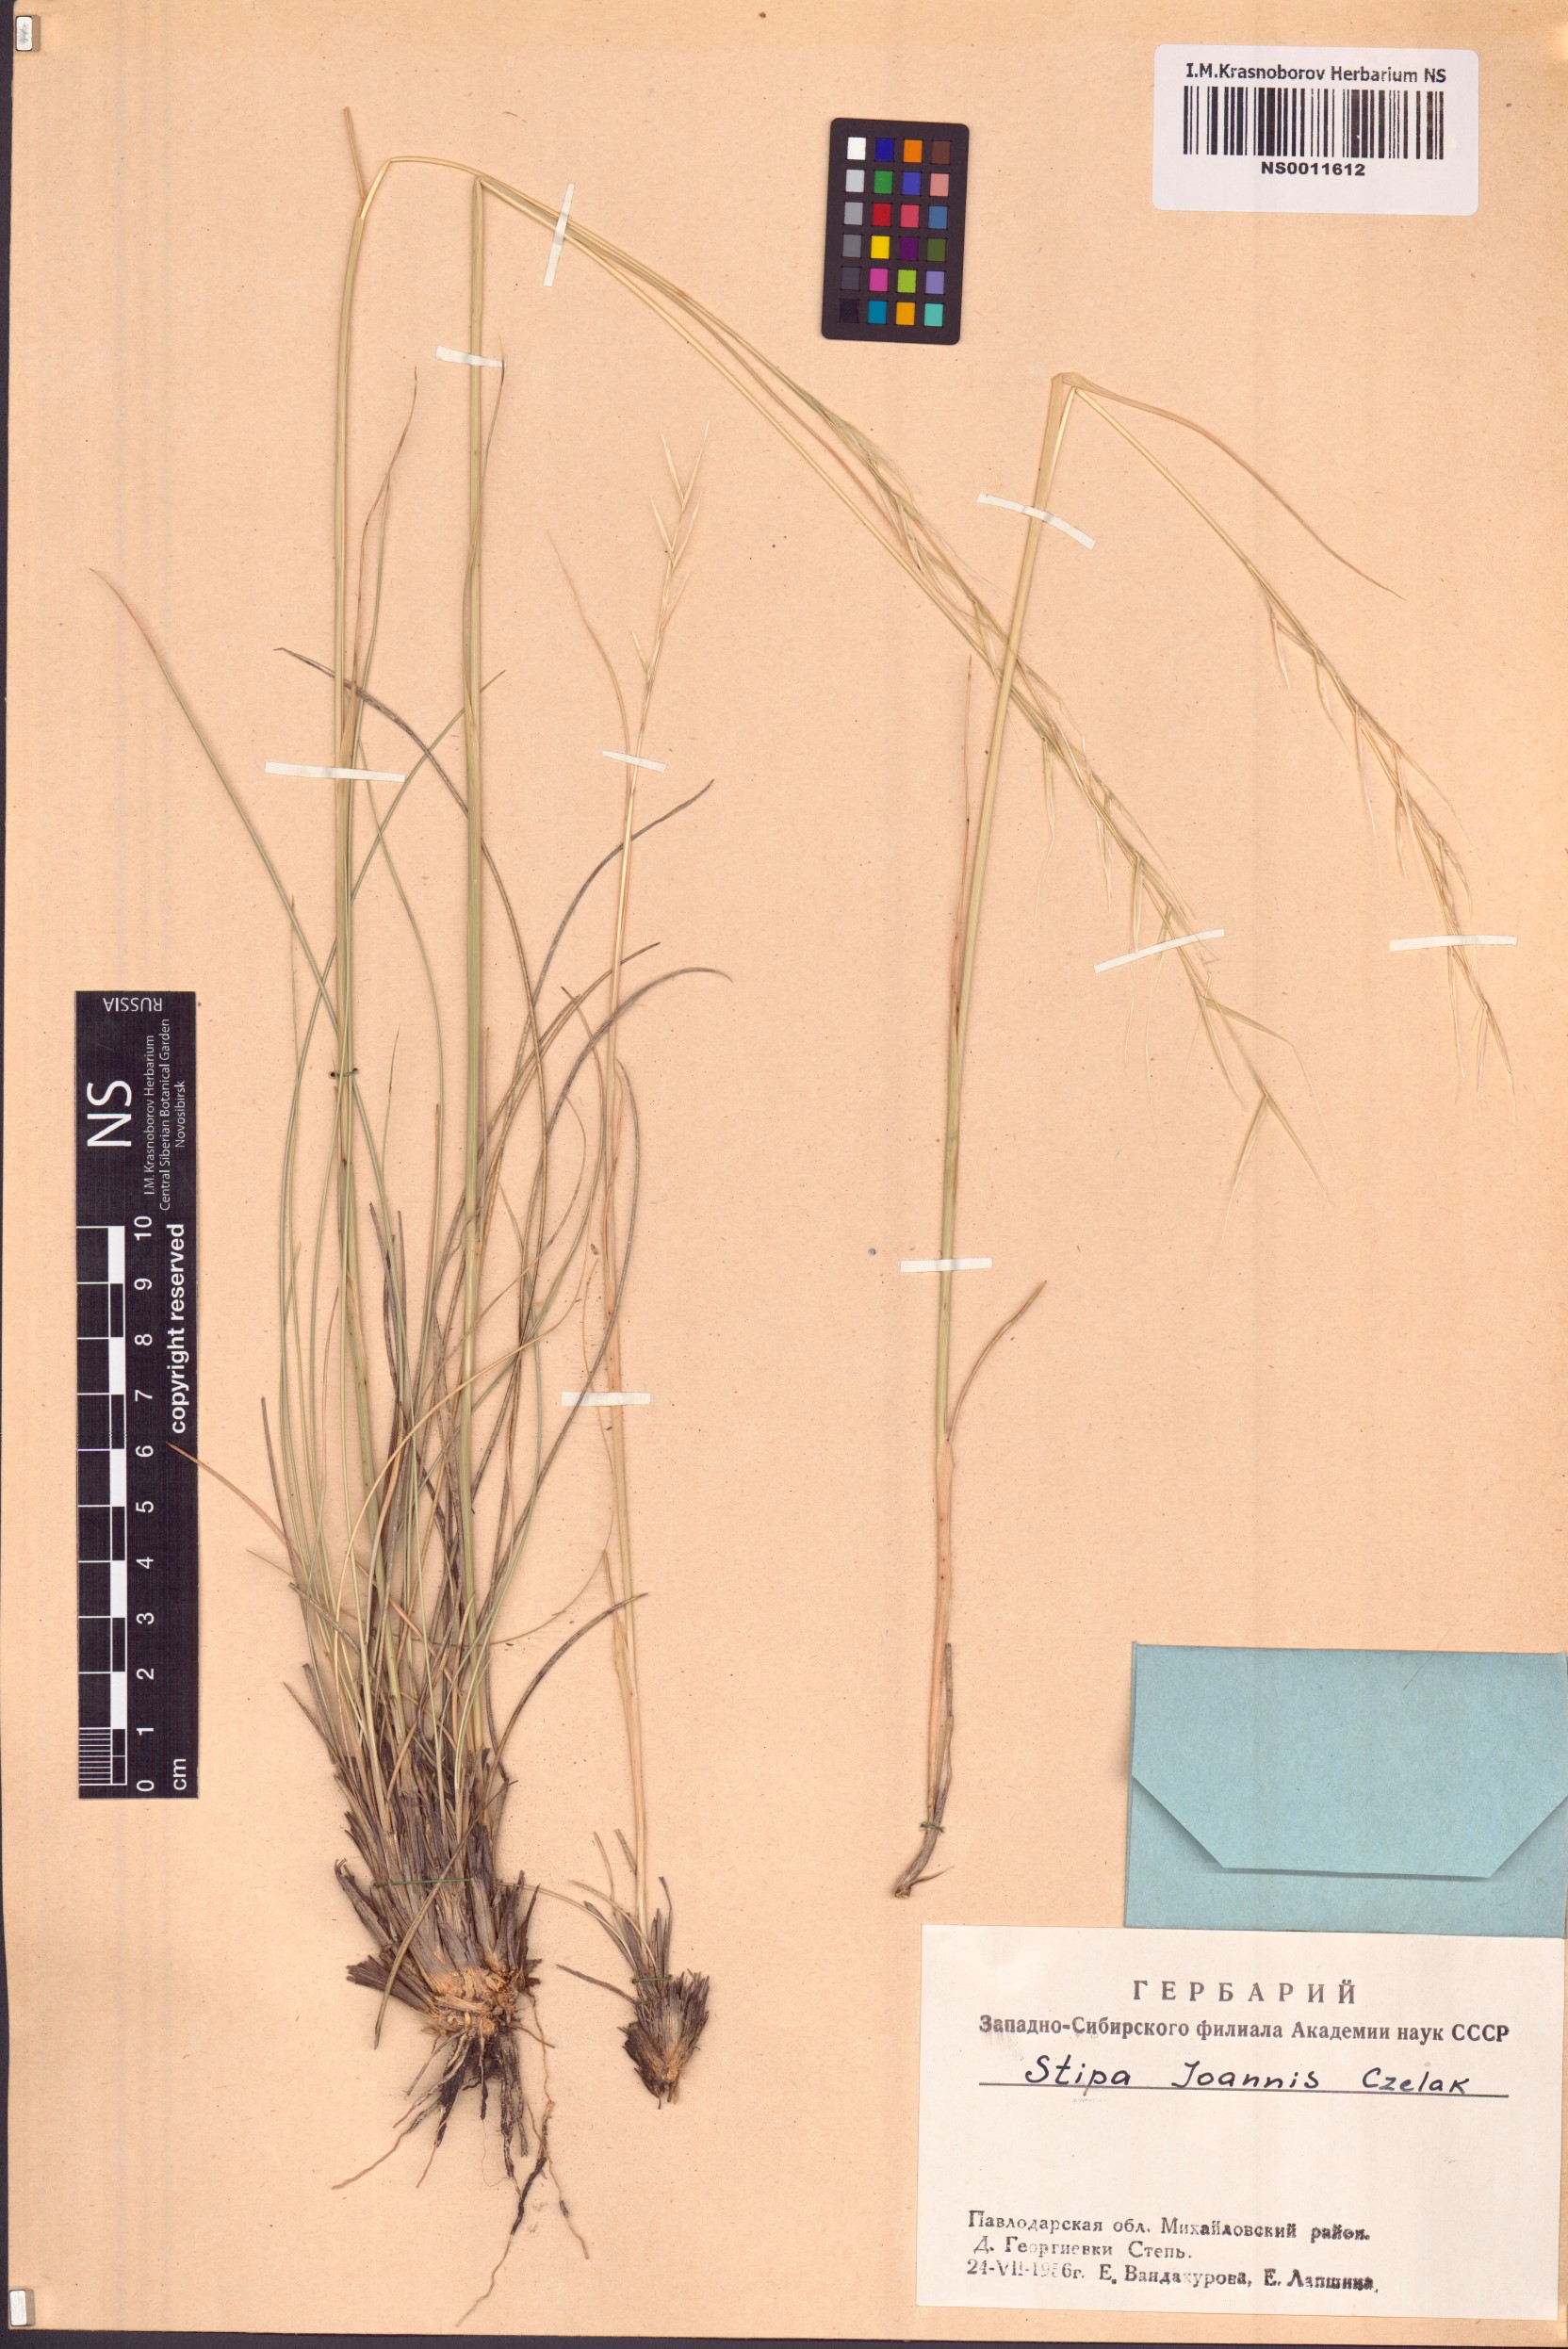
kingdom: Plantae
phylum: Tracheophyta
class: Liliopsida
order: Poales
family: Poaceae
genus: Stipa
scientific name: Stipa pennata
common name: European feather grass
